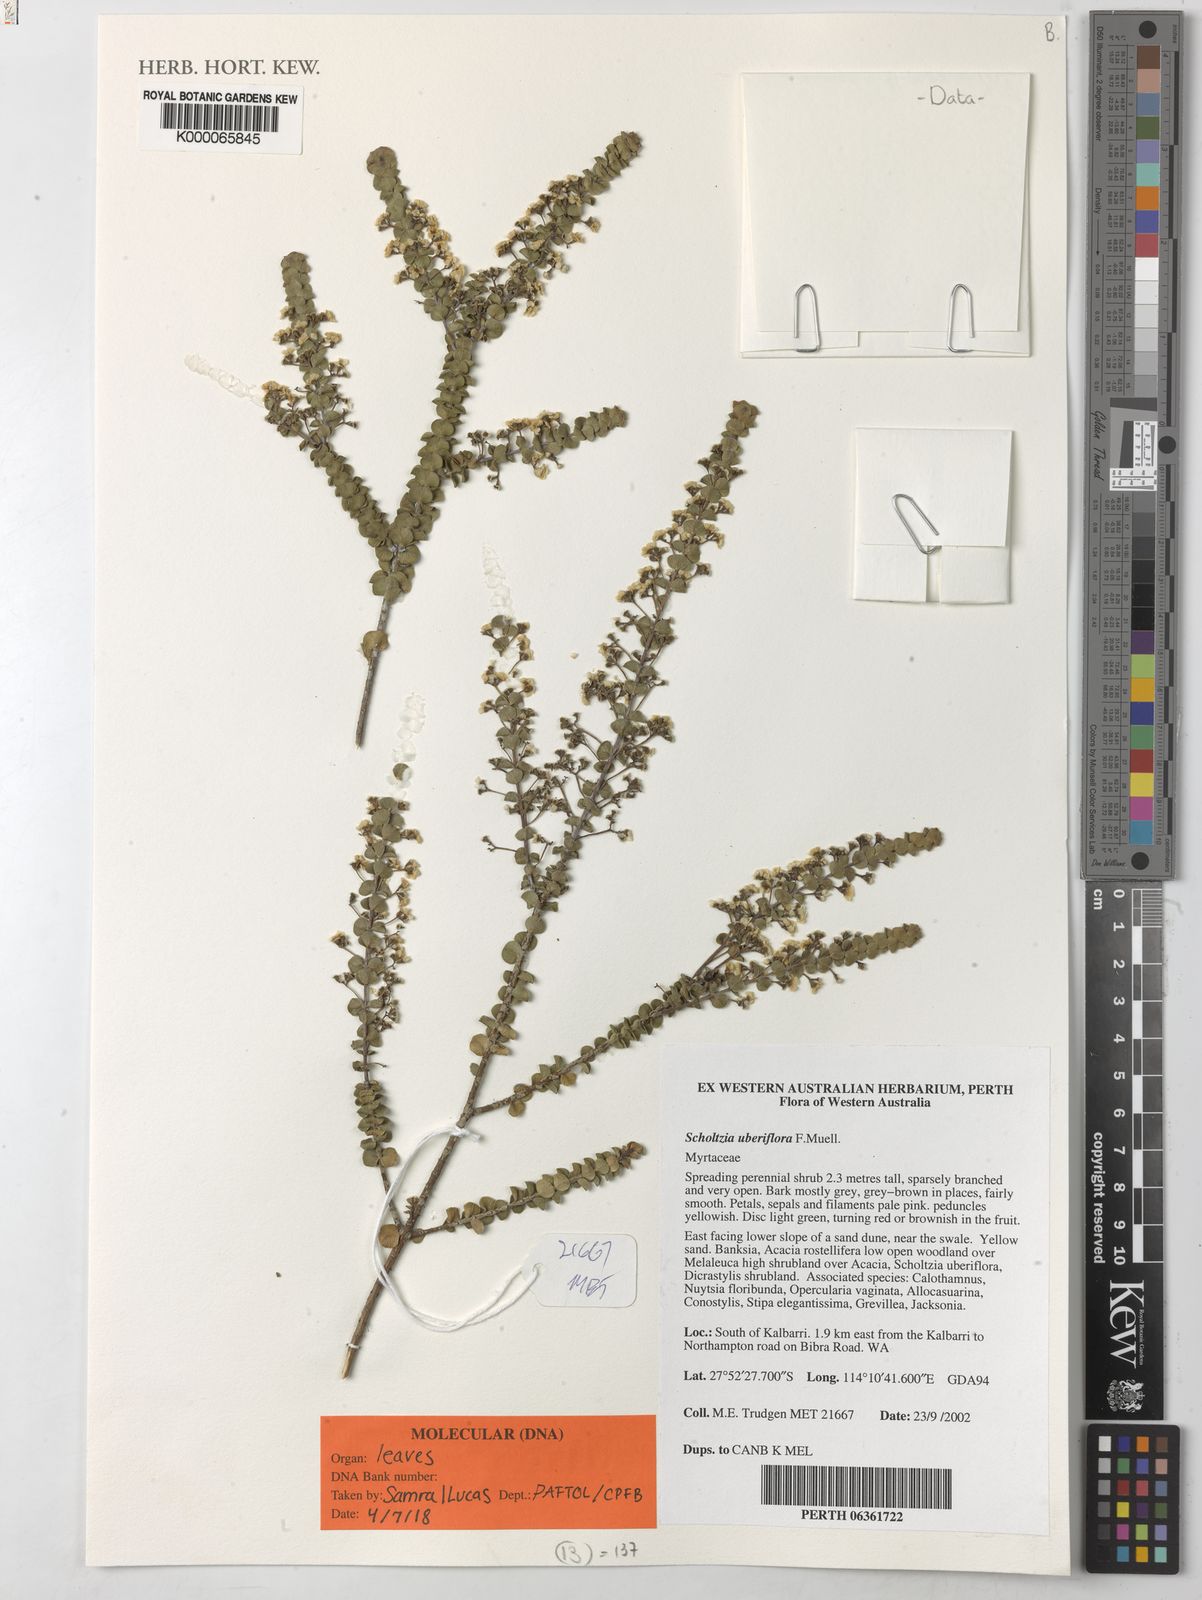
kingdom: Plantae
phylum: Tracheophyta
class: Magnoliopsida
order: Myrtales
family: Myrtaceae
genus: Scholtzia
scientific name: Scholtzia uberiflora
